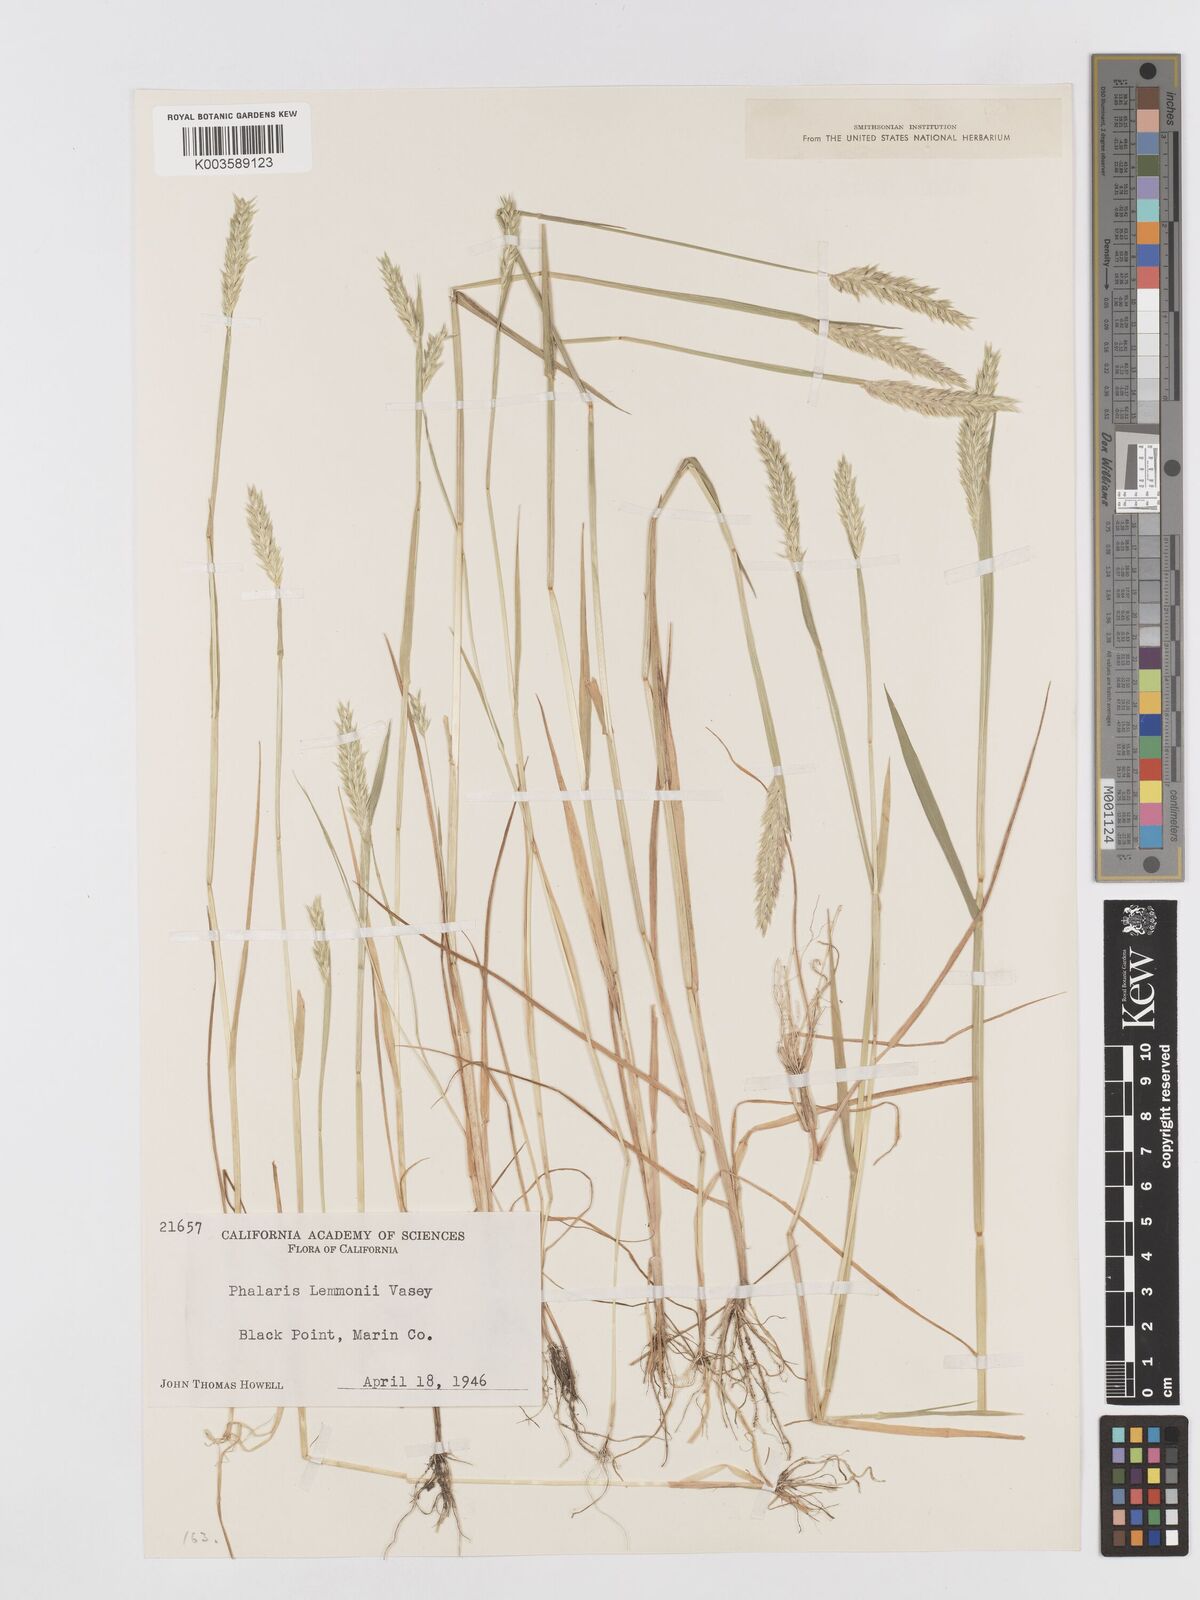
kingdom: Plantae
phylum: Tracheophyta
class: Liliopsida
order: Poales
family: Poaceae
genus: Phalaris
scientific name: Phalaris lemmonii
